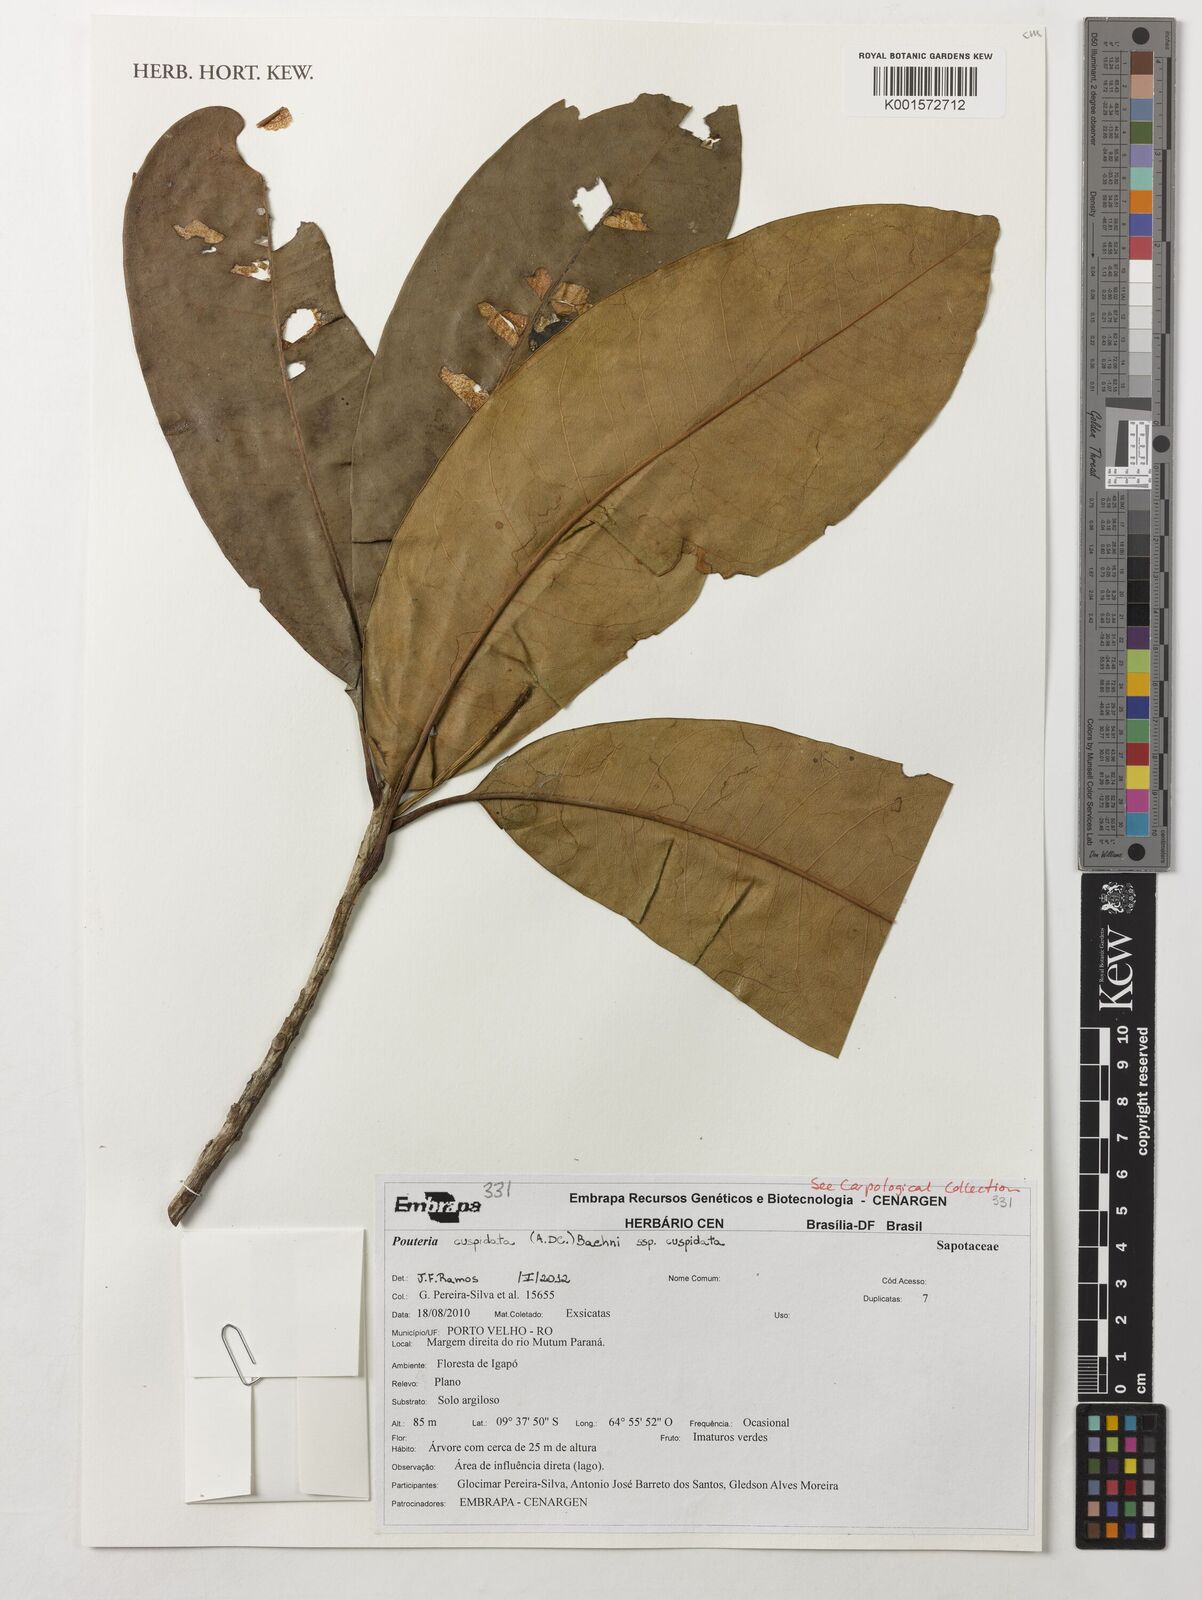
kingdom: Plantae
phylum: Tracheophyta
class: Magnoliopsida
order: Ericales
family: Sapotaceae
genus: Pouteria
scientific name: Pouteria cuspidata
